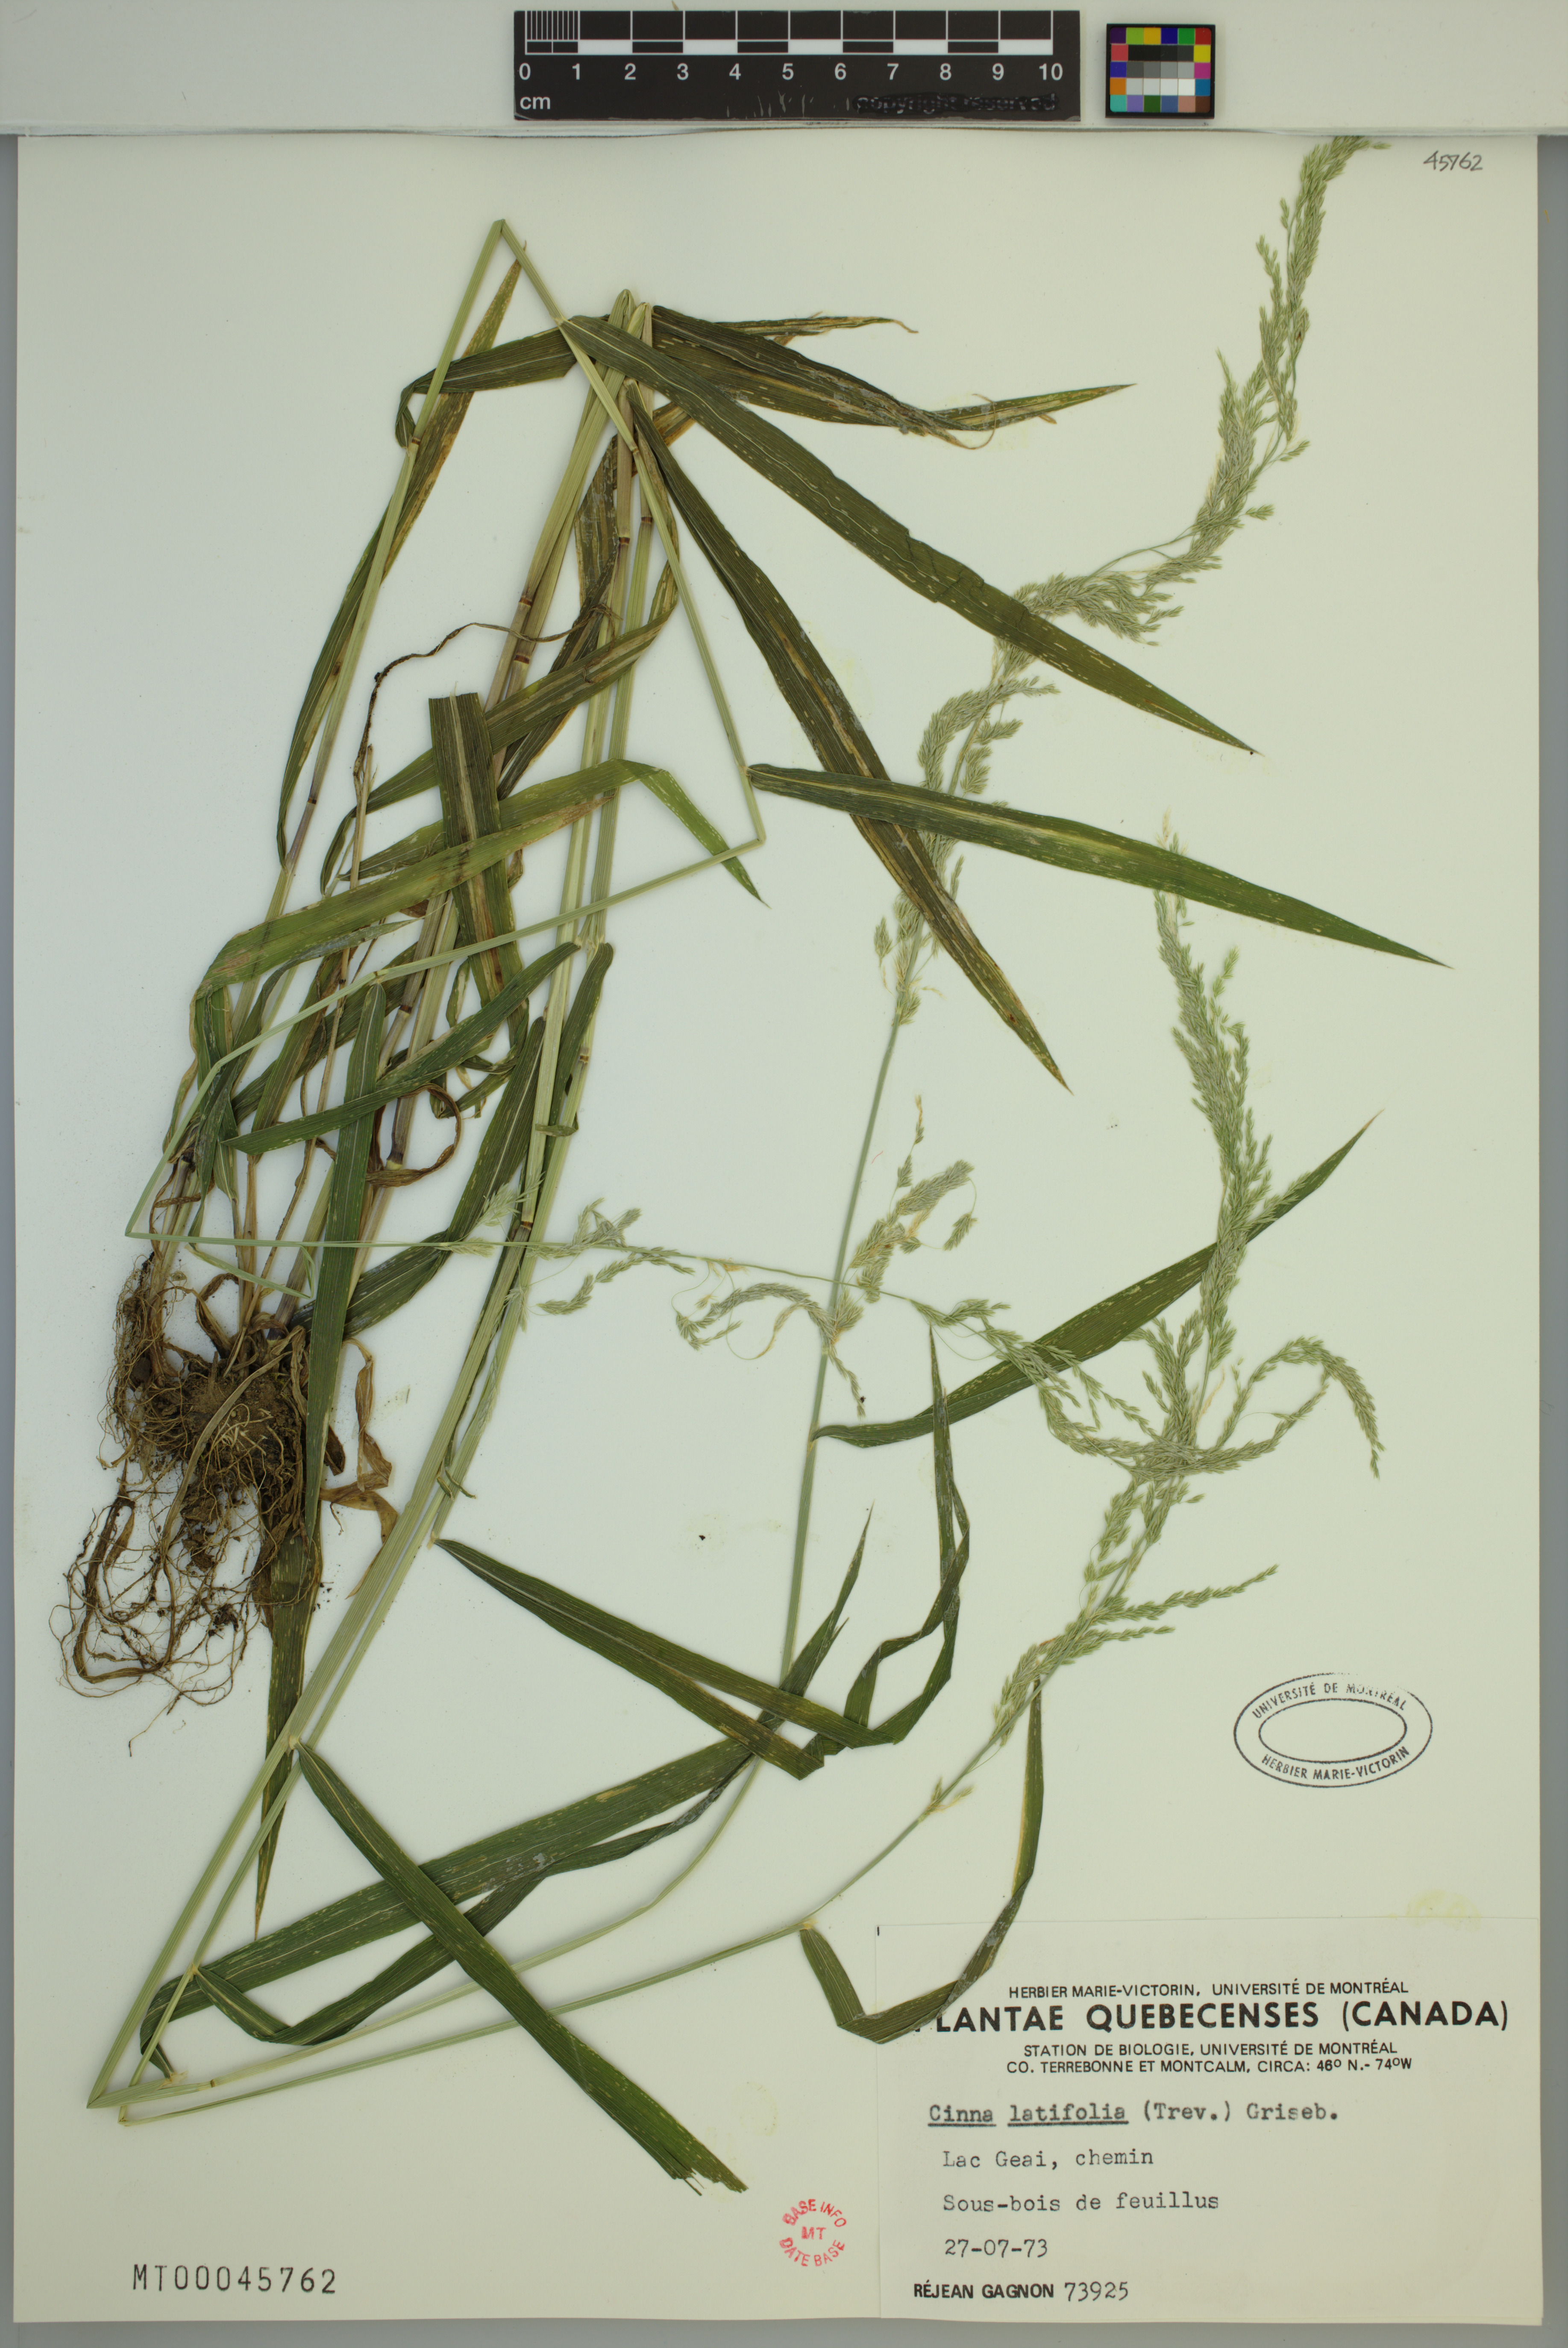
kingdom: Plantae
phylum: Tracheophyta
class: Liliopsida
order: Poales
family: Poaceae
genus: Cinna
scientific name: Cinna latifolia
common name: Drooping woodreed
